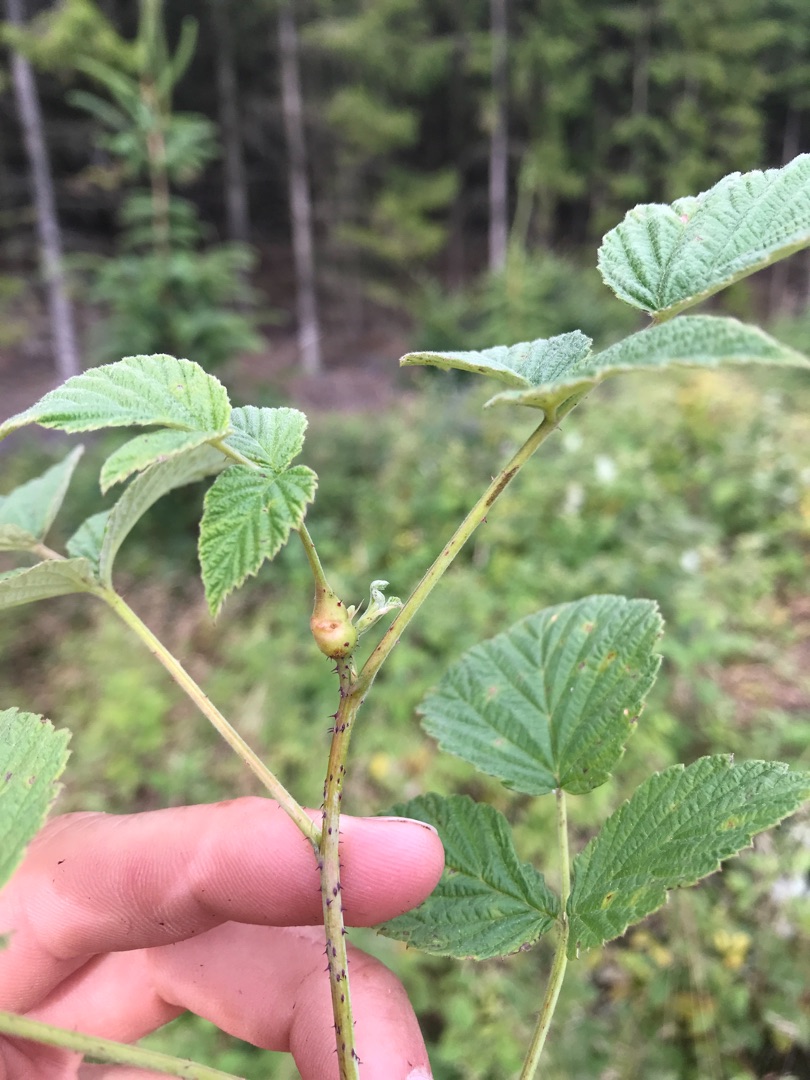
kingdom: Animalia
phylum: Arthropoda
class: Insecta
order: Diptera
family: Cecidomyiidae
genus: Lasioptera
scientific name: Lasioptera rubi
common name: Hindbærstængelgalmyg
